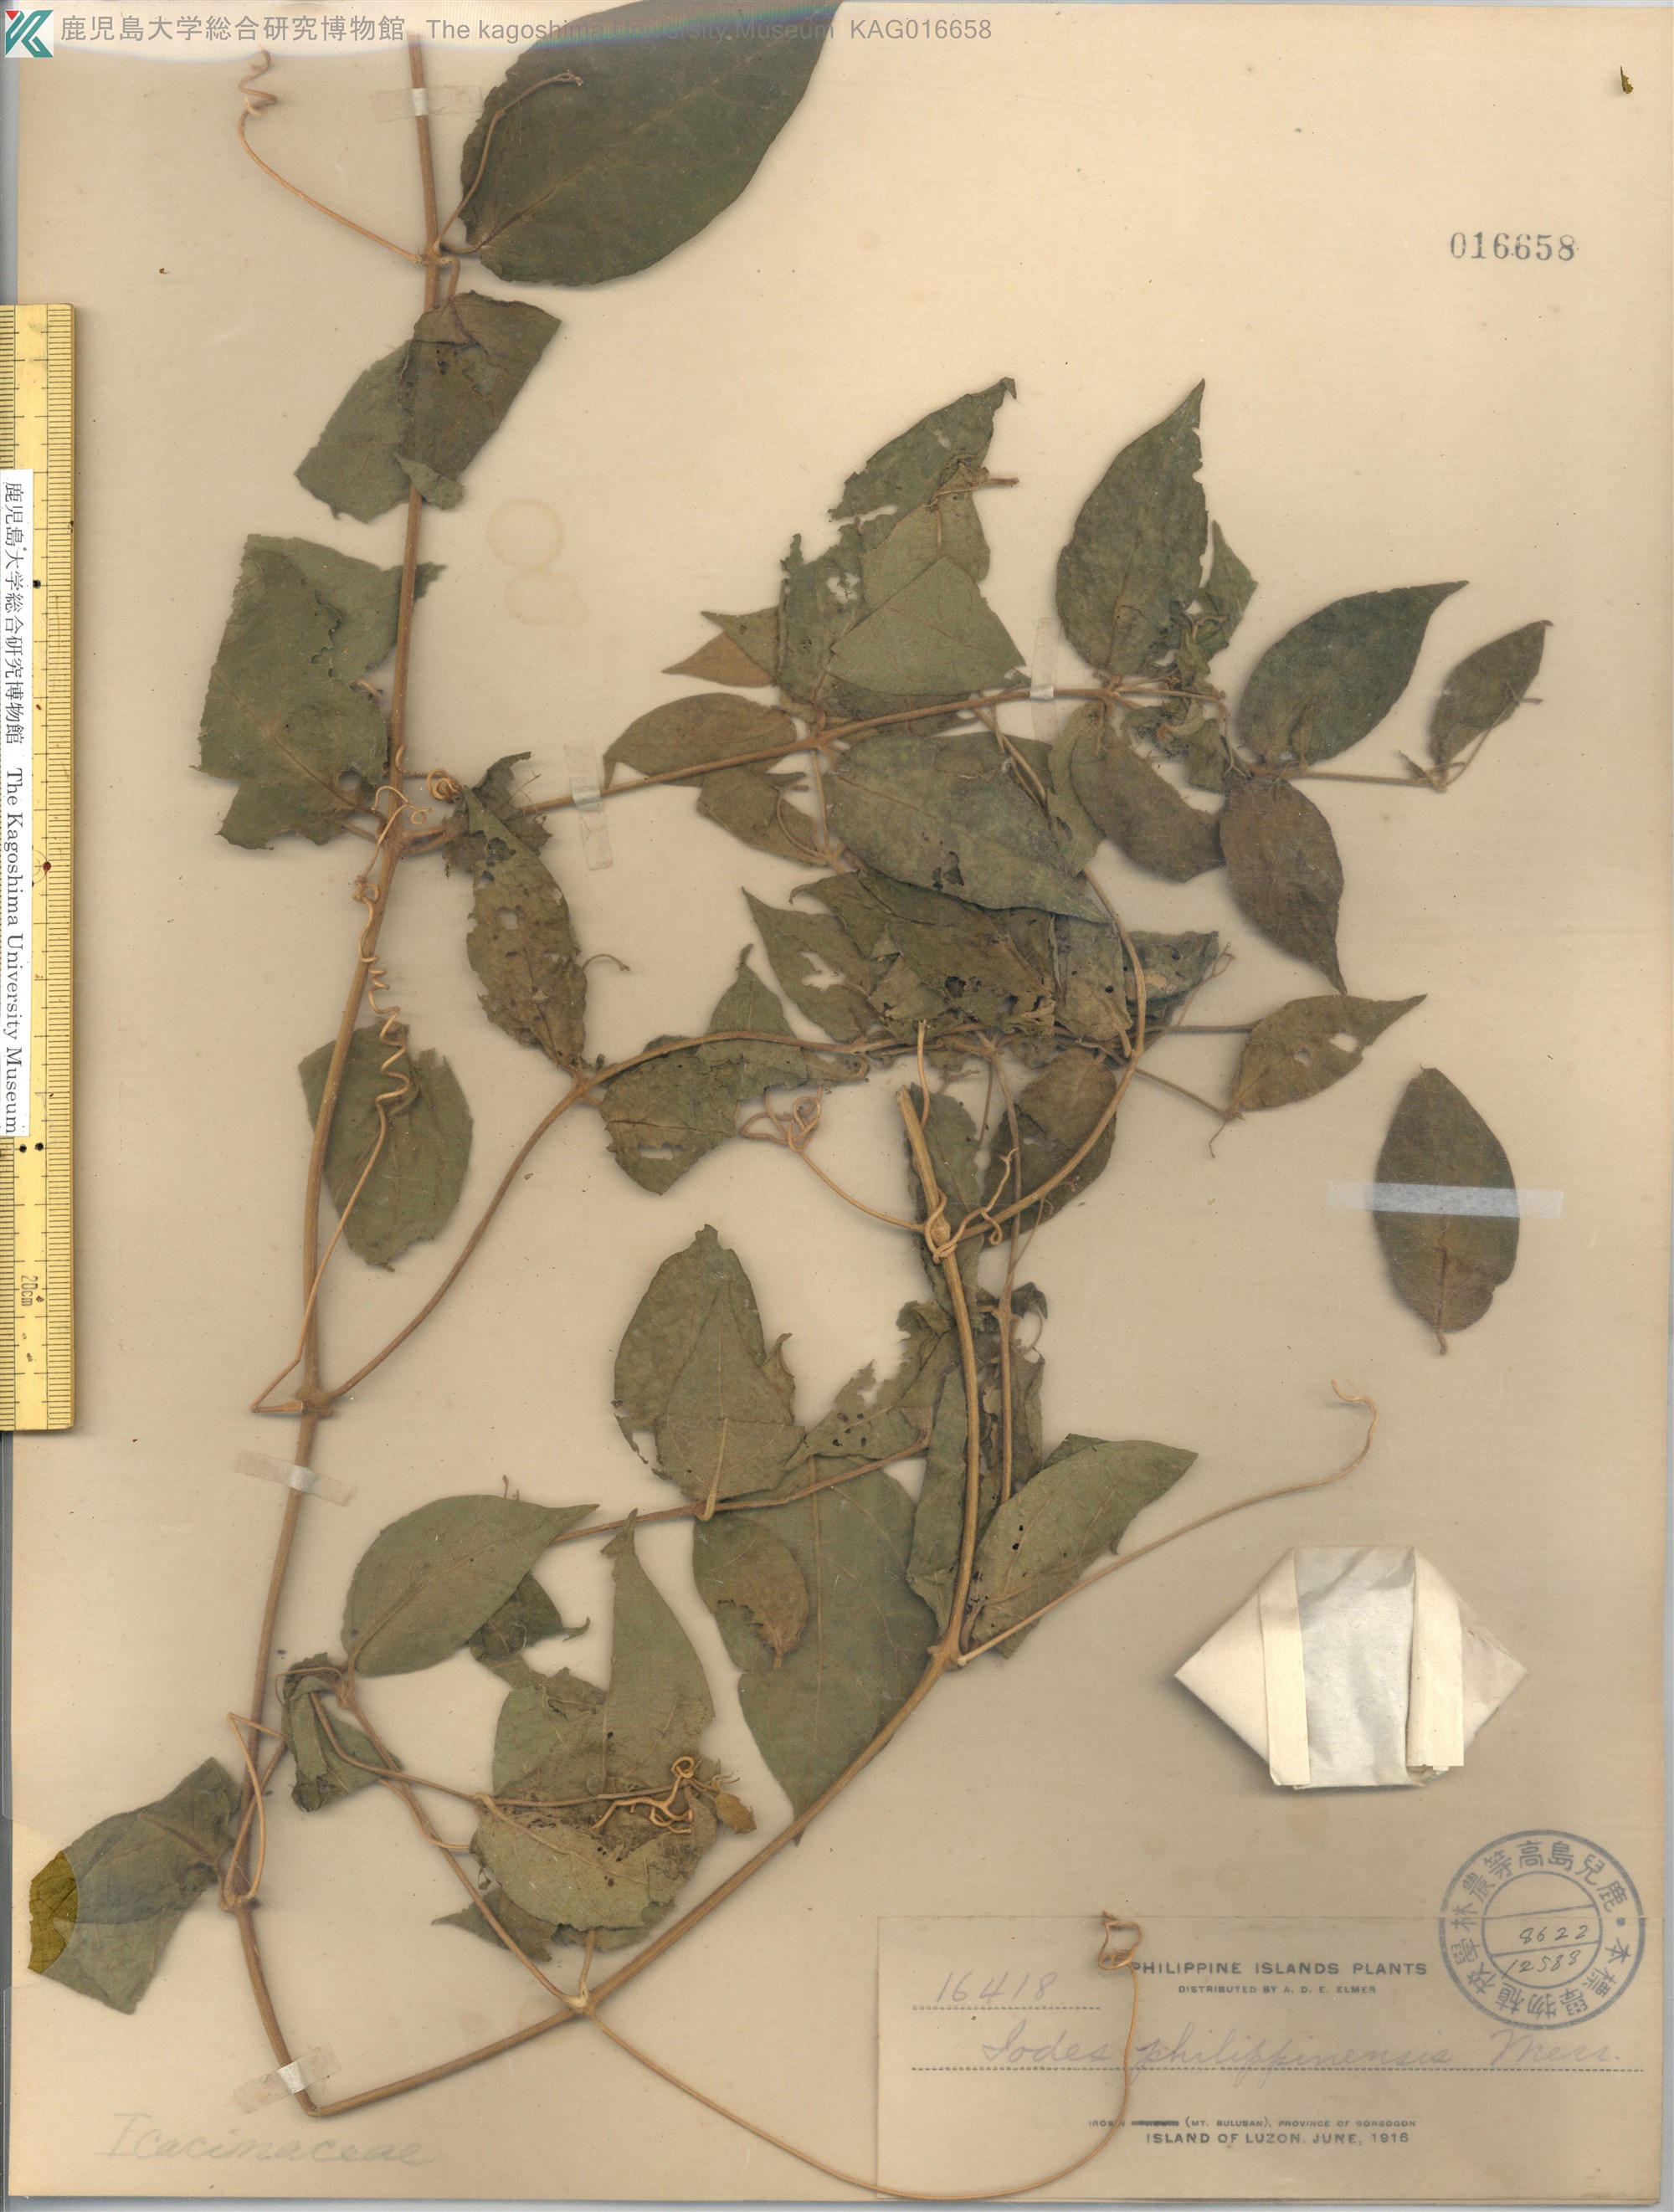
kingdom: Plantae
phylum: Tracheophyta
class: Magnoliopsida
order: Icacinales
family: Icacinaceae
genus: Iodes
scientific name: Iodes philippinensis
